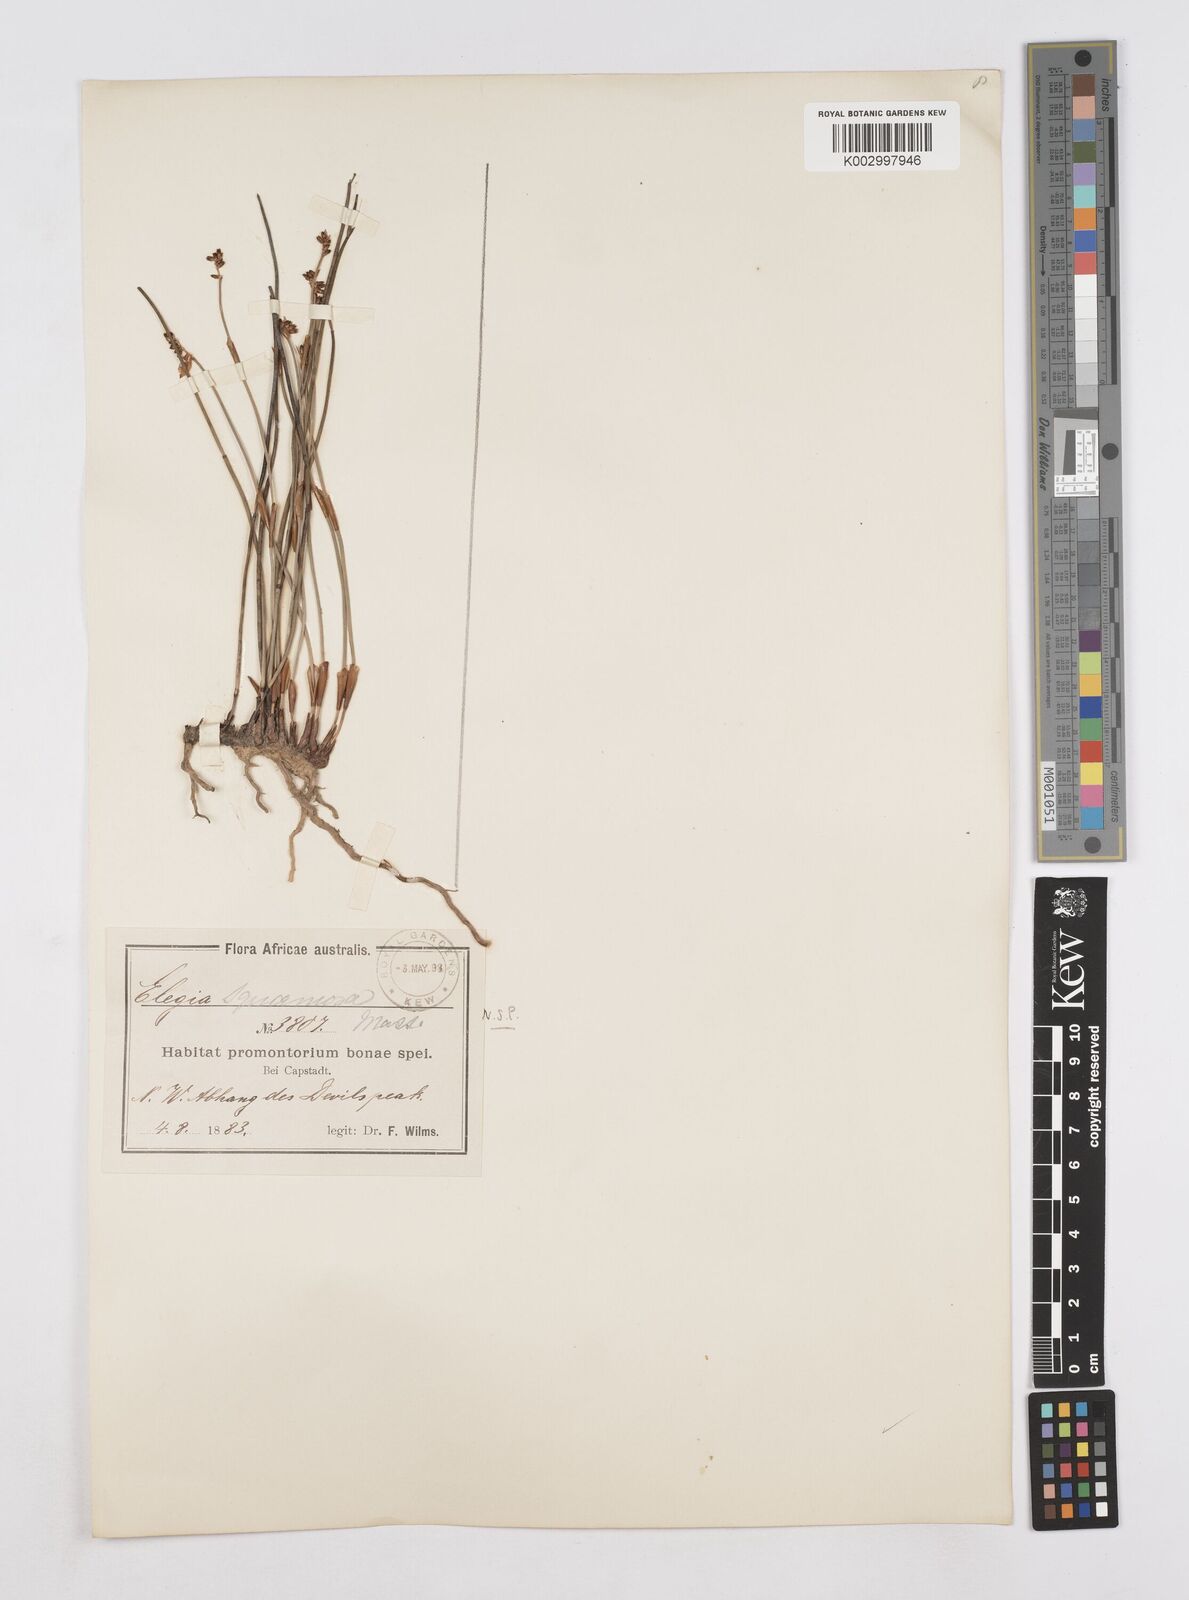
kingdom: Plantae
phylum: Tracheophyta
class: Liliopsida
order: Poales
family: Restionaceae
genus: Elegia
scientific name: Elegia squamosa
